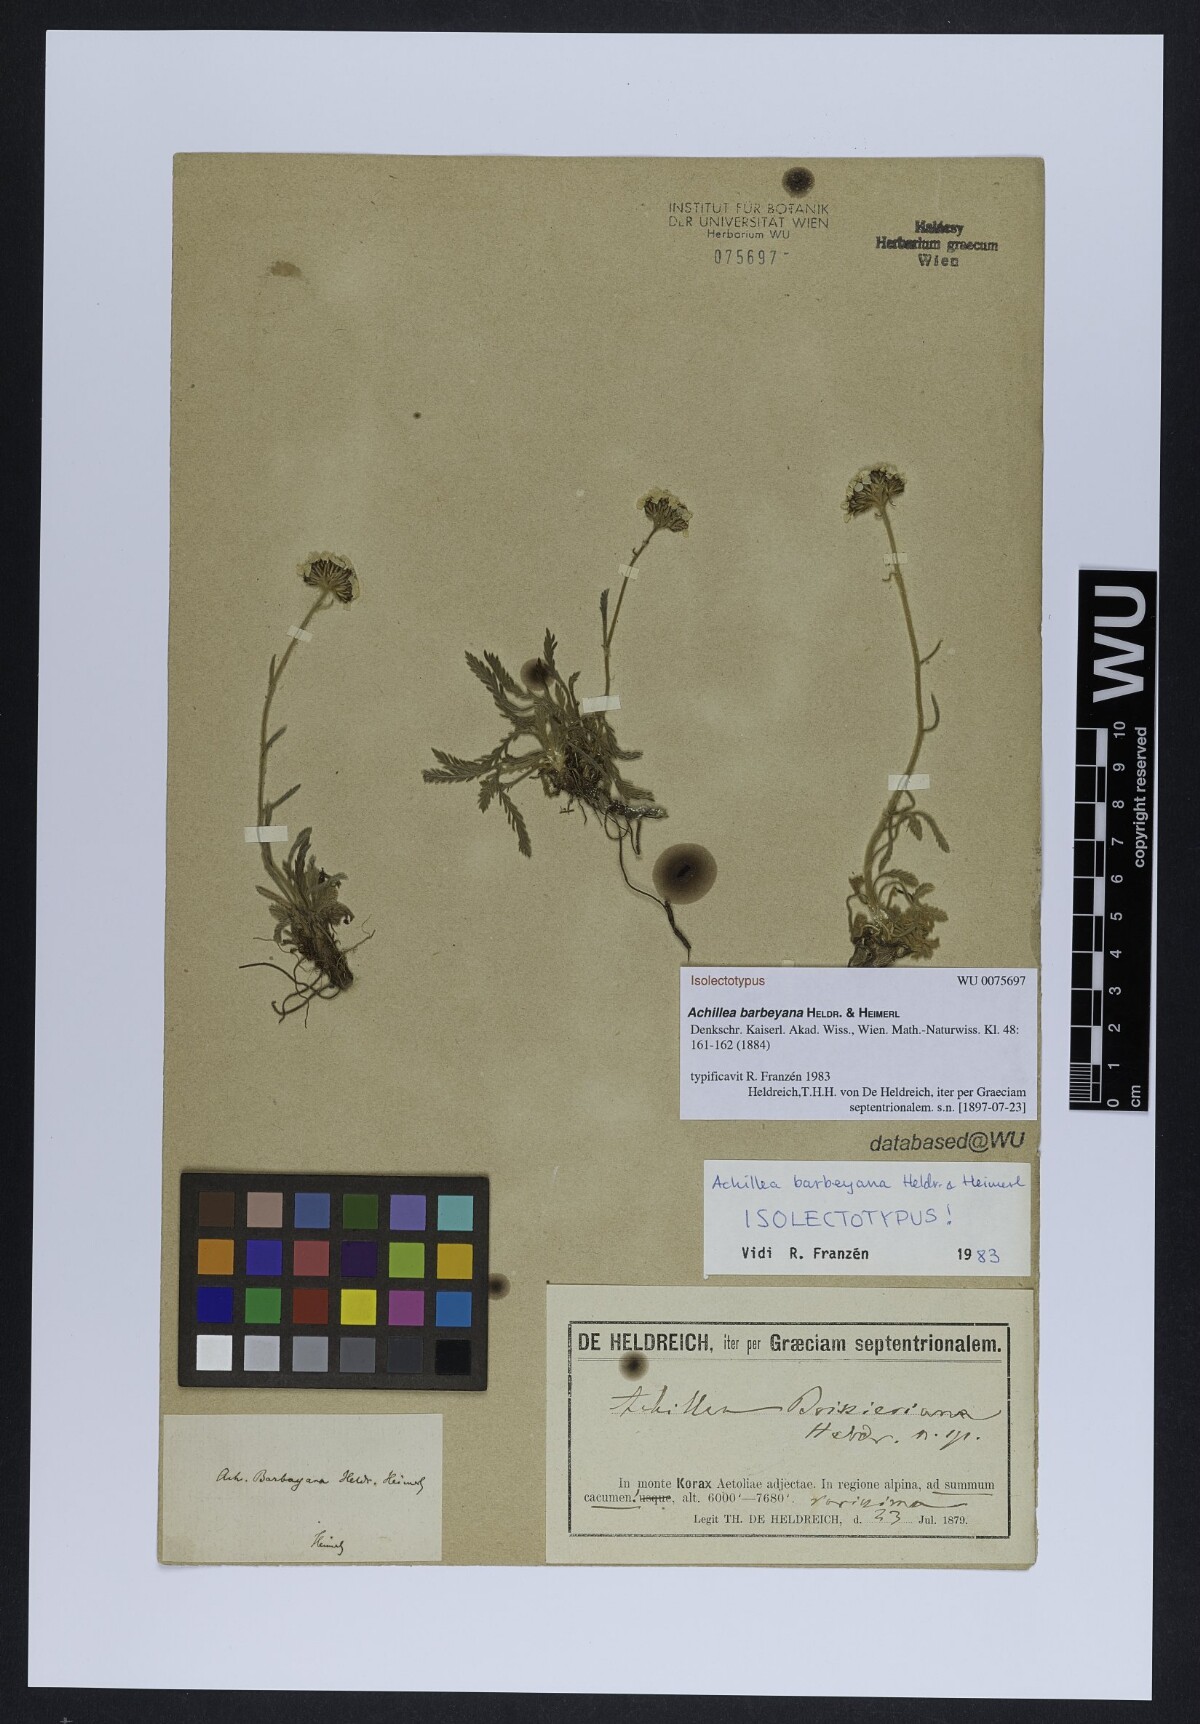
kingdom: Plantae
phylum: Tracheophyta
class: Magnoliopsida
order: Asterales
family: Asteraceae
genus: Achillea
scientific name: Achillea barbeyana
